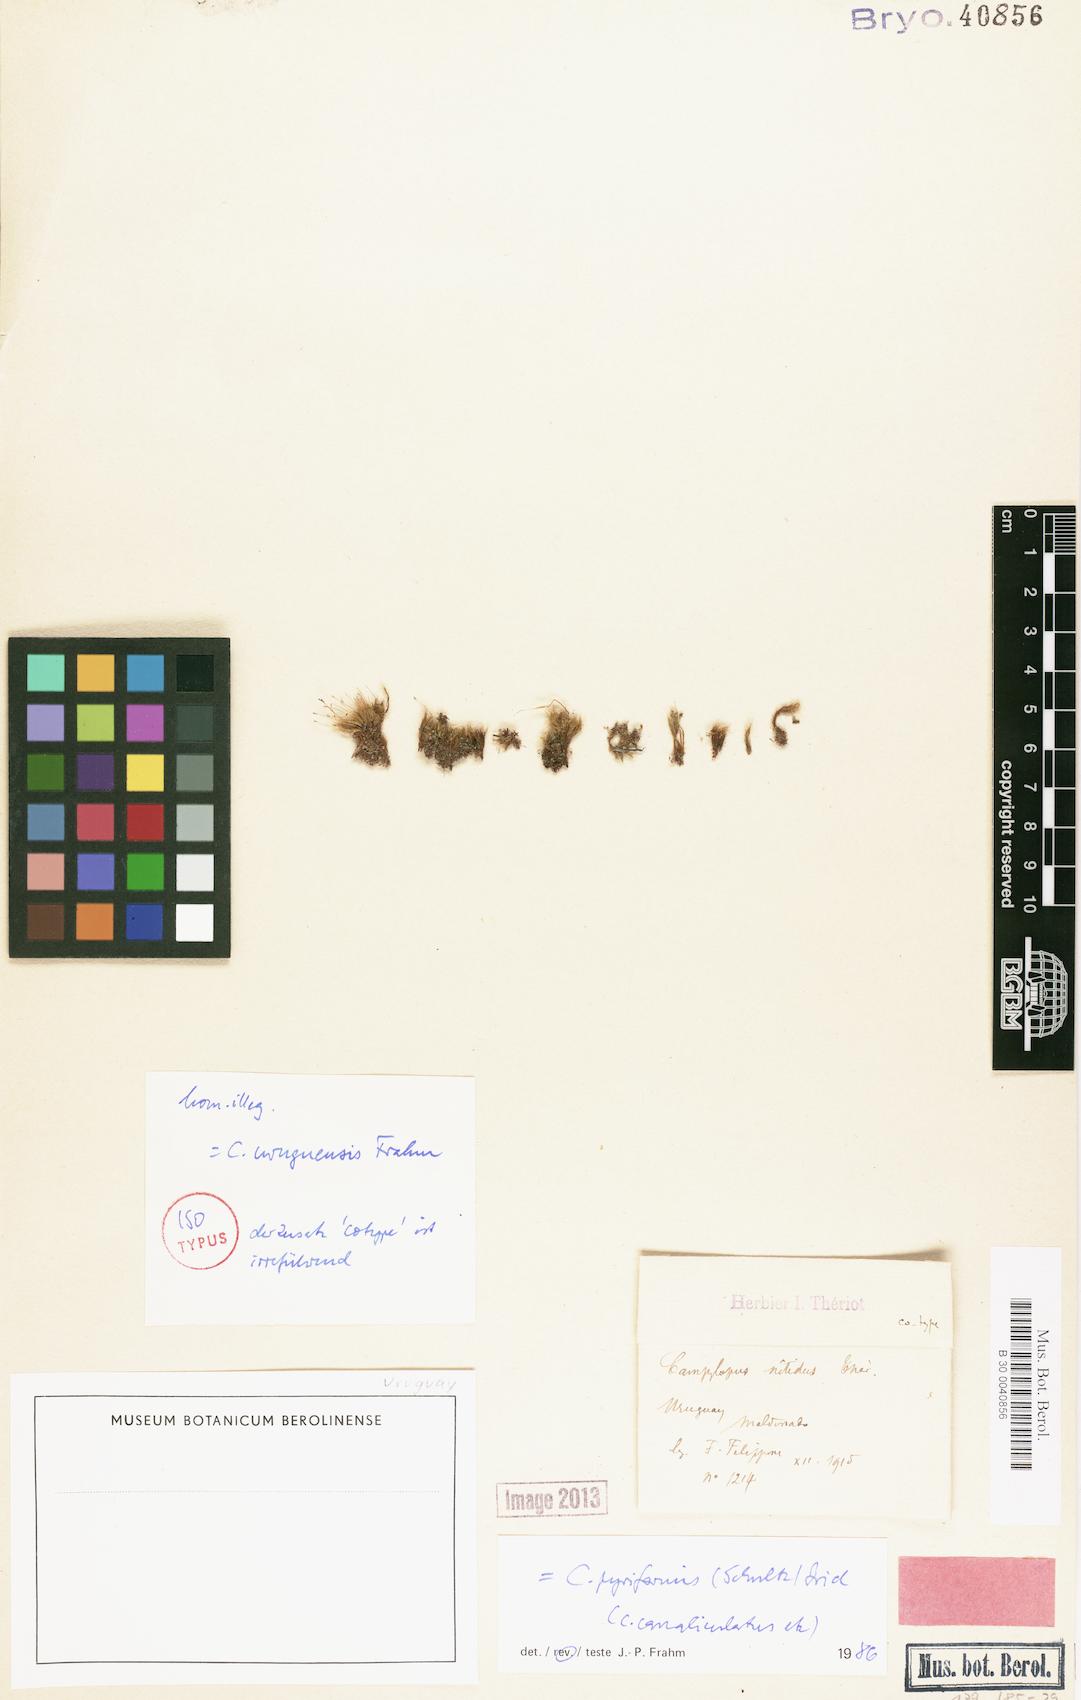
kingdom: Plantae
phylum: Bryophyta
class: Bryopsida
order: Dicranales
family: Leucobryaceae
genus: Campylopus
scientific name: Campylopus pyriformis
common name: Dwarf swan-neck moss
